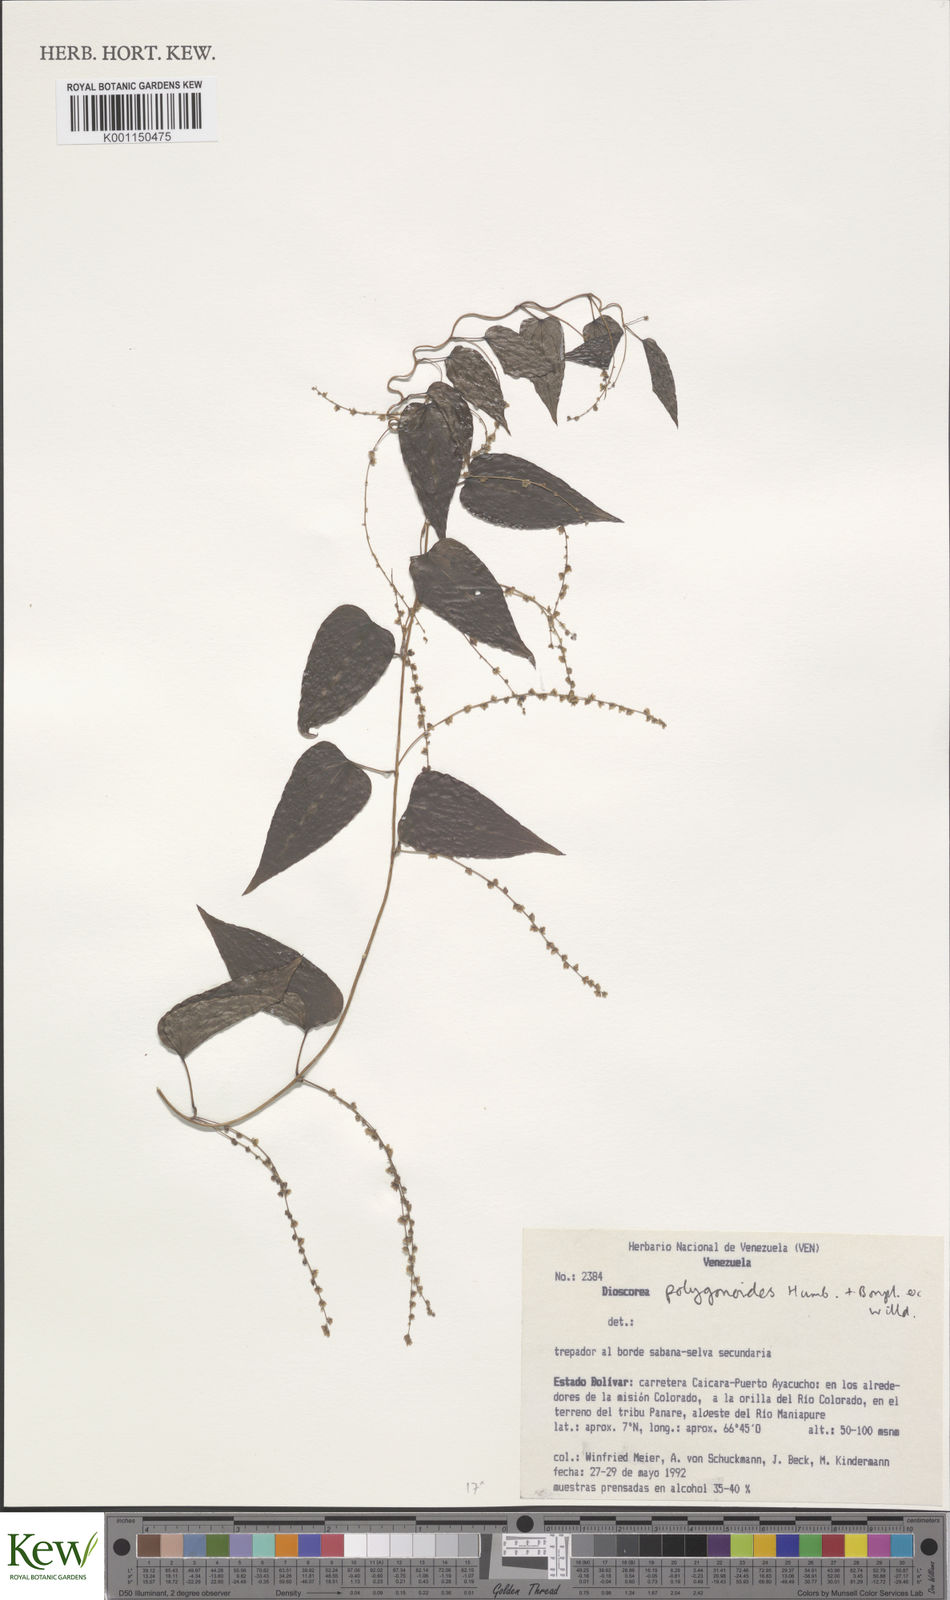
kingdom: Plantae
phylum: Tracheophyta
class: Liliopsida
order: Dioscoreales
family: Dioscoreaceae
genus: Dioscorea
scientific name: Dioscorea polygonoides
